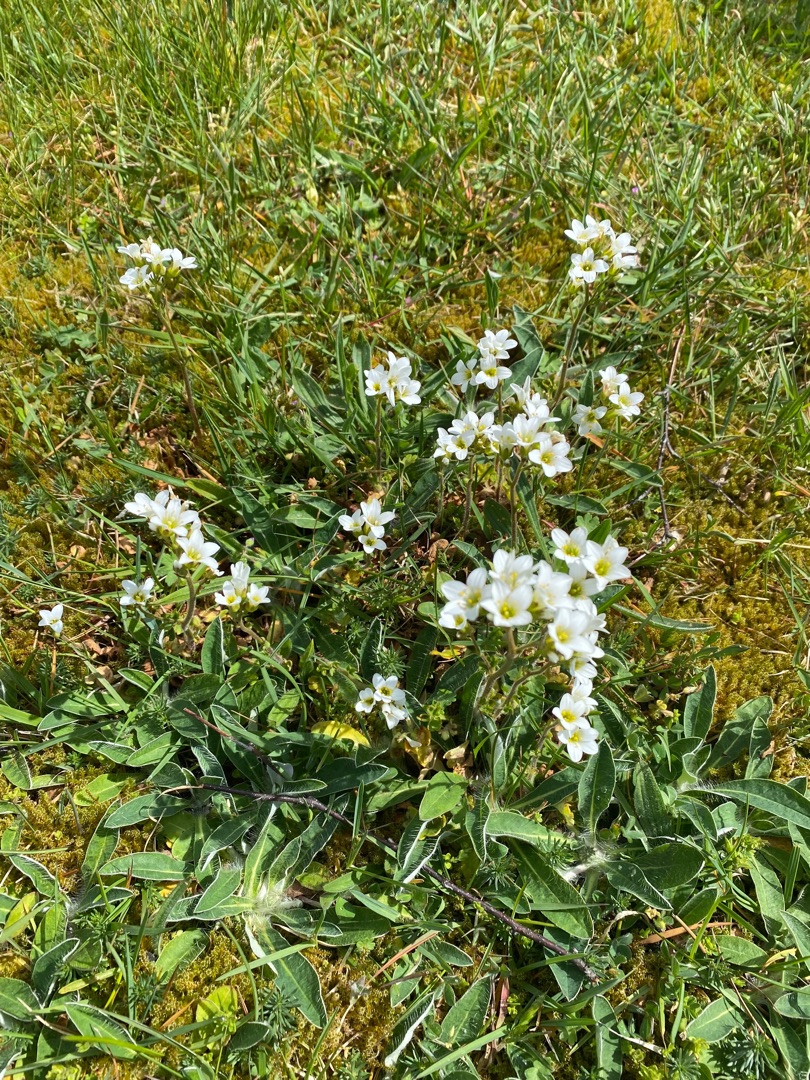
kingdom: Plantae
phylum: Tracheophyta
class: Magnoliopsida
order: Saxifragales
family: Saxifragaceae
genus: Saxifraga
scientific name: Saxifraga granulata
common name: Kornet stenbræk
